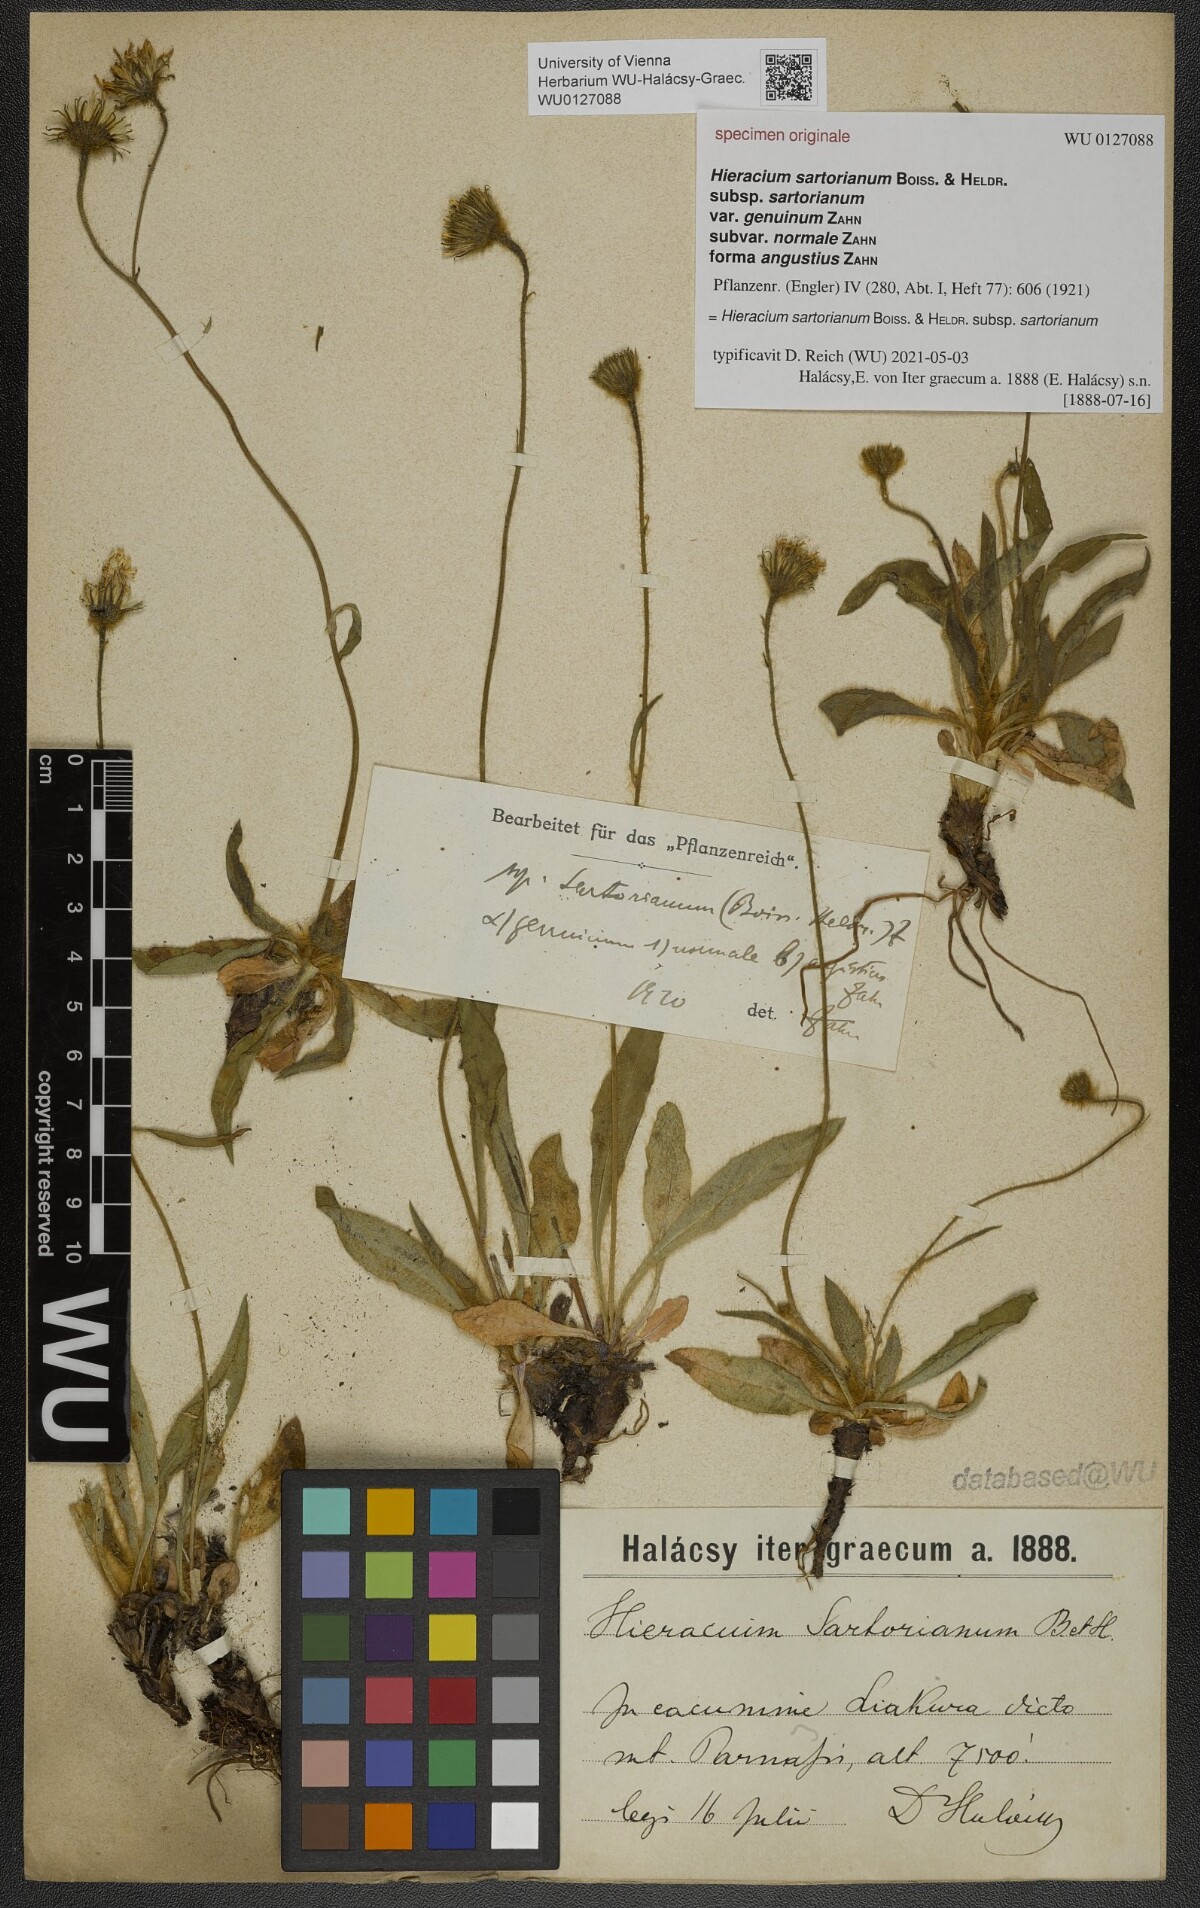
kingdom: Plantae
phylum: Tracheophyta
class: Magnoliopsida
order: Asterales
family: Asteraceae
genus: Hieracium
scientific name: Hieracium sartorianum
